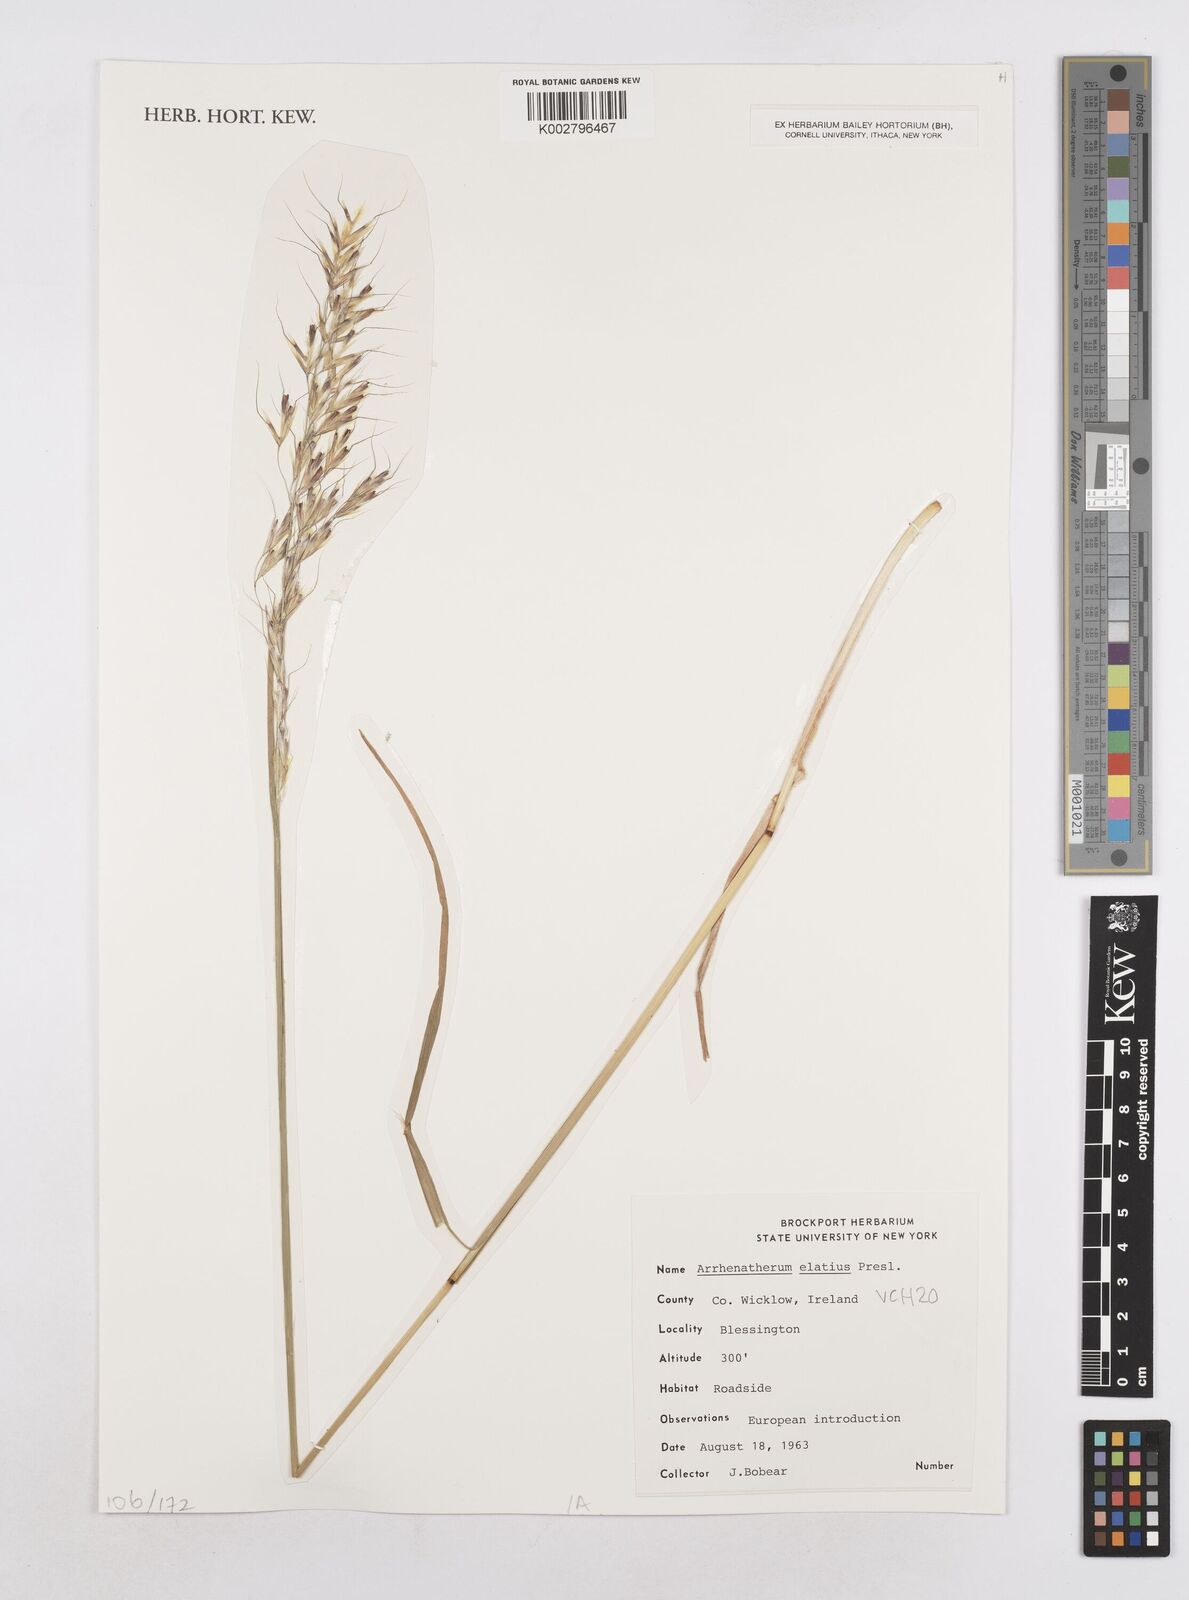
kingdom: Plantae
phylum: Tracheophyta
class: Liliopsida
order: Poales
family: Poaceae
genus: Arrhenatherum
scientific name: Arrhenatherum elatius
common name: Tall oatgrass
